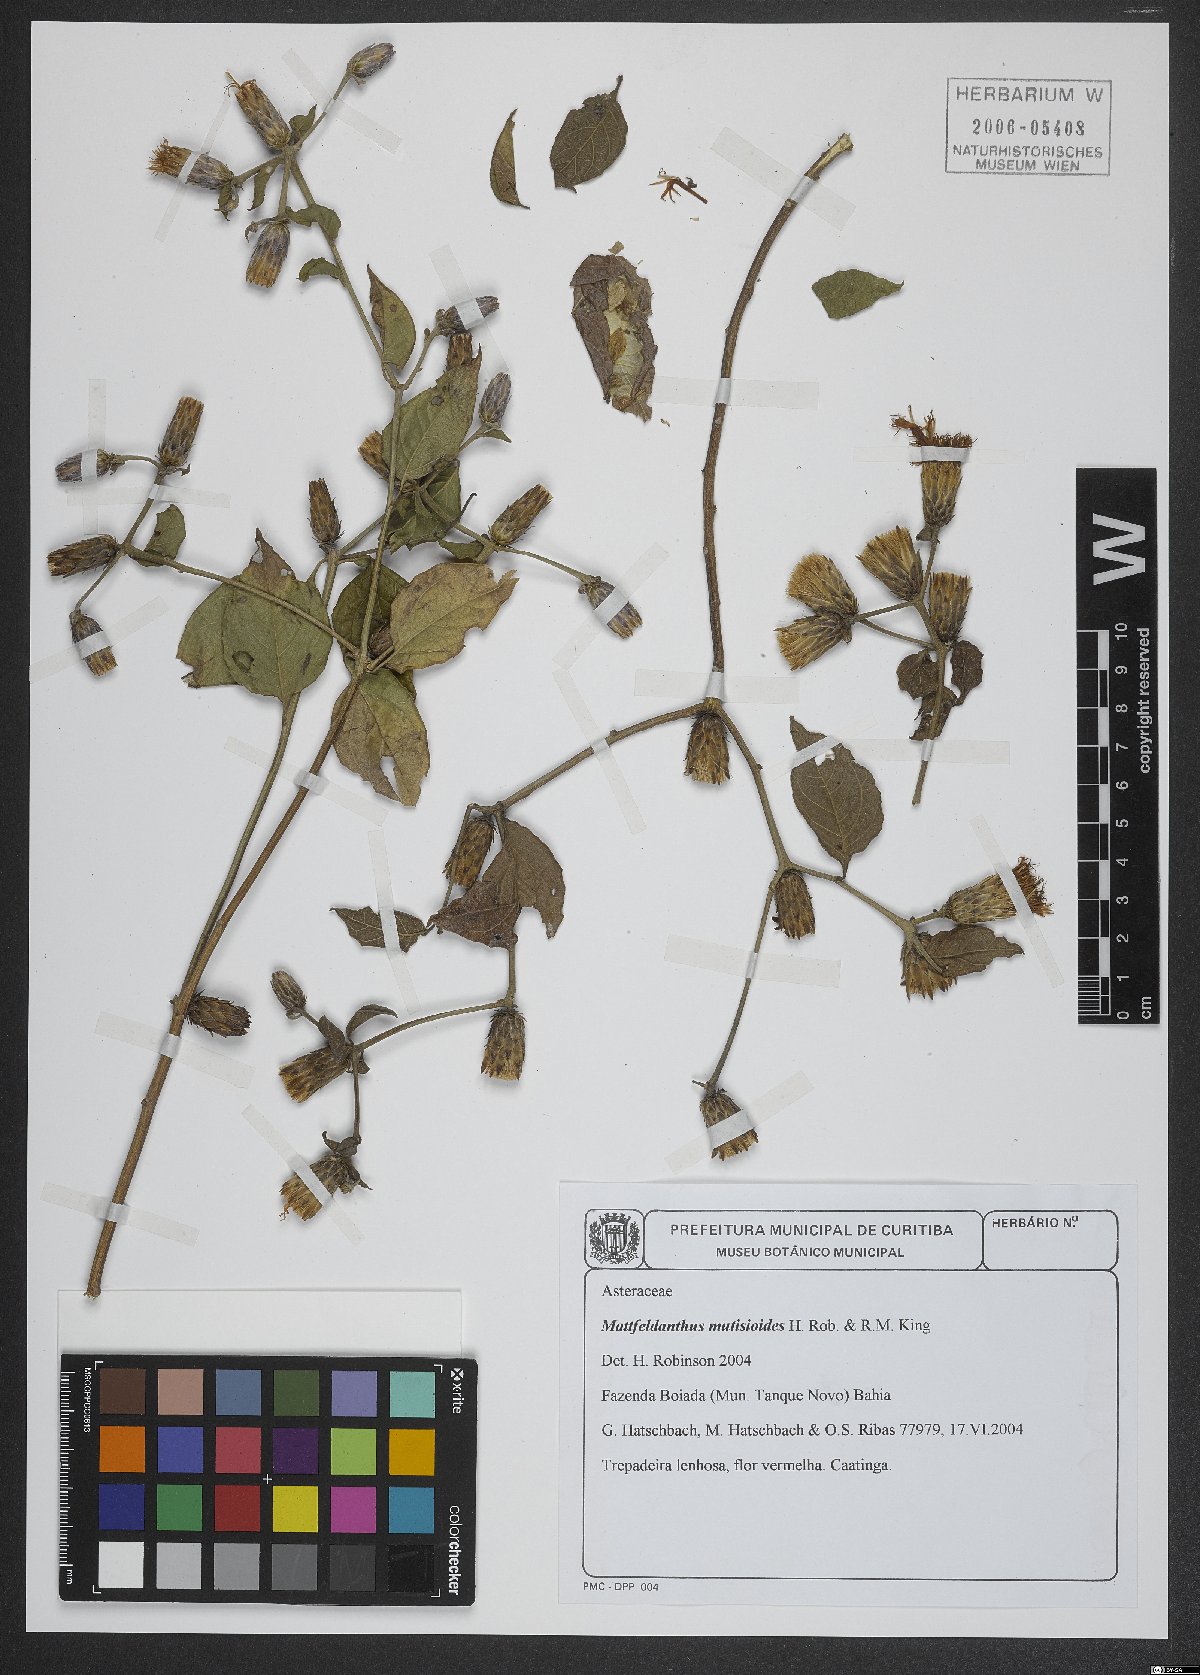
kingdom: Plantae
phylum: Tracheophyta
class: Magnoliopsida
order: Asterales
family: Asteraceae
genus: Mattfeldanthus
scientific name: Mattfeldanthus mutisioides
